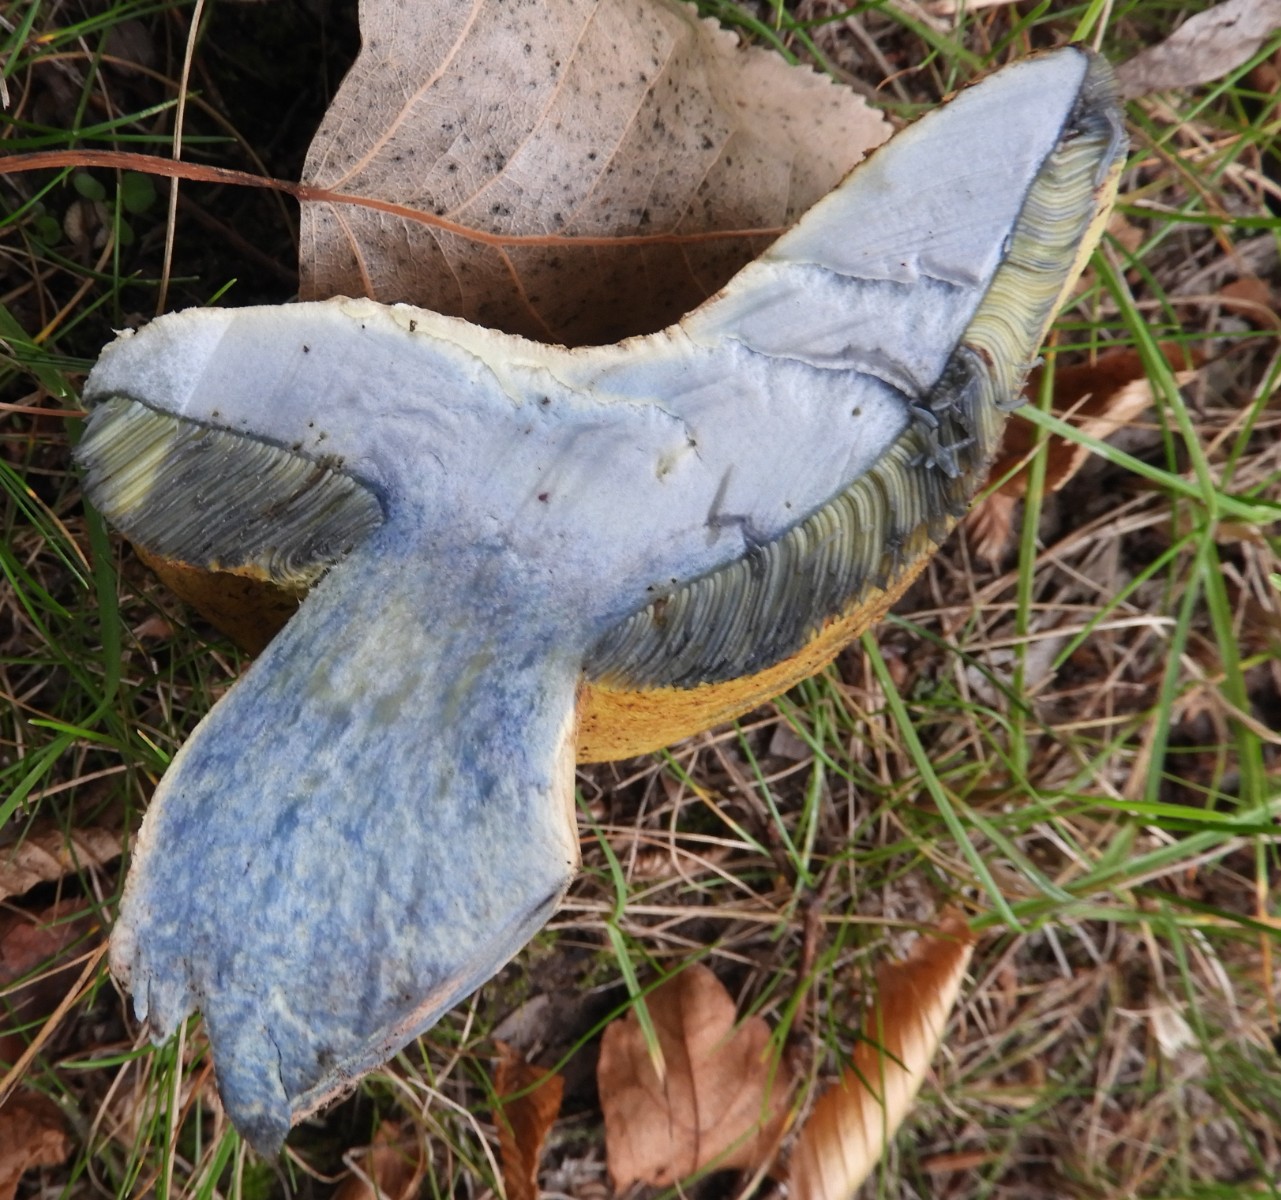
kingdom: Fungi
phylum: Basidiomycota
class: Agaricomycetes
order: Boletales
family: Boletaceae
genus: Caloboletus
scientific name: Caloboletus radicans
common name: rod-rørhat
